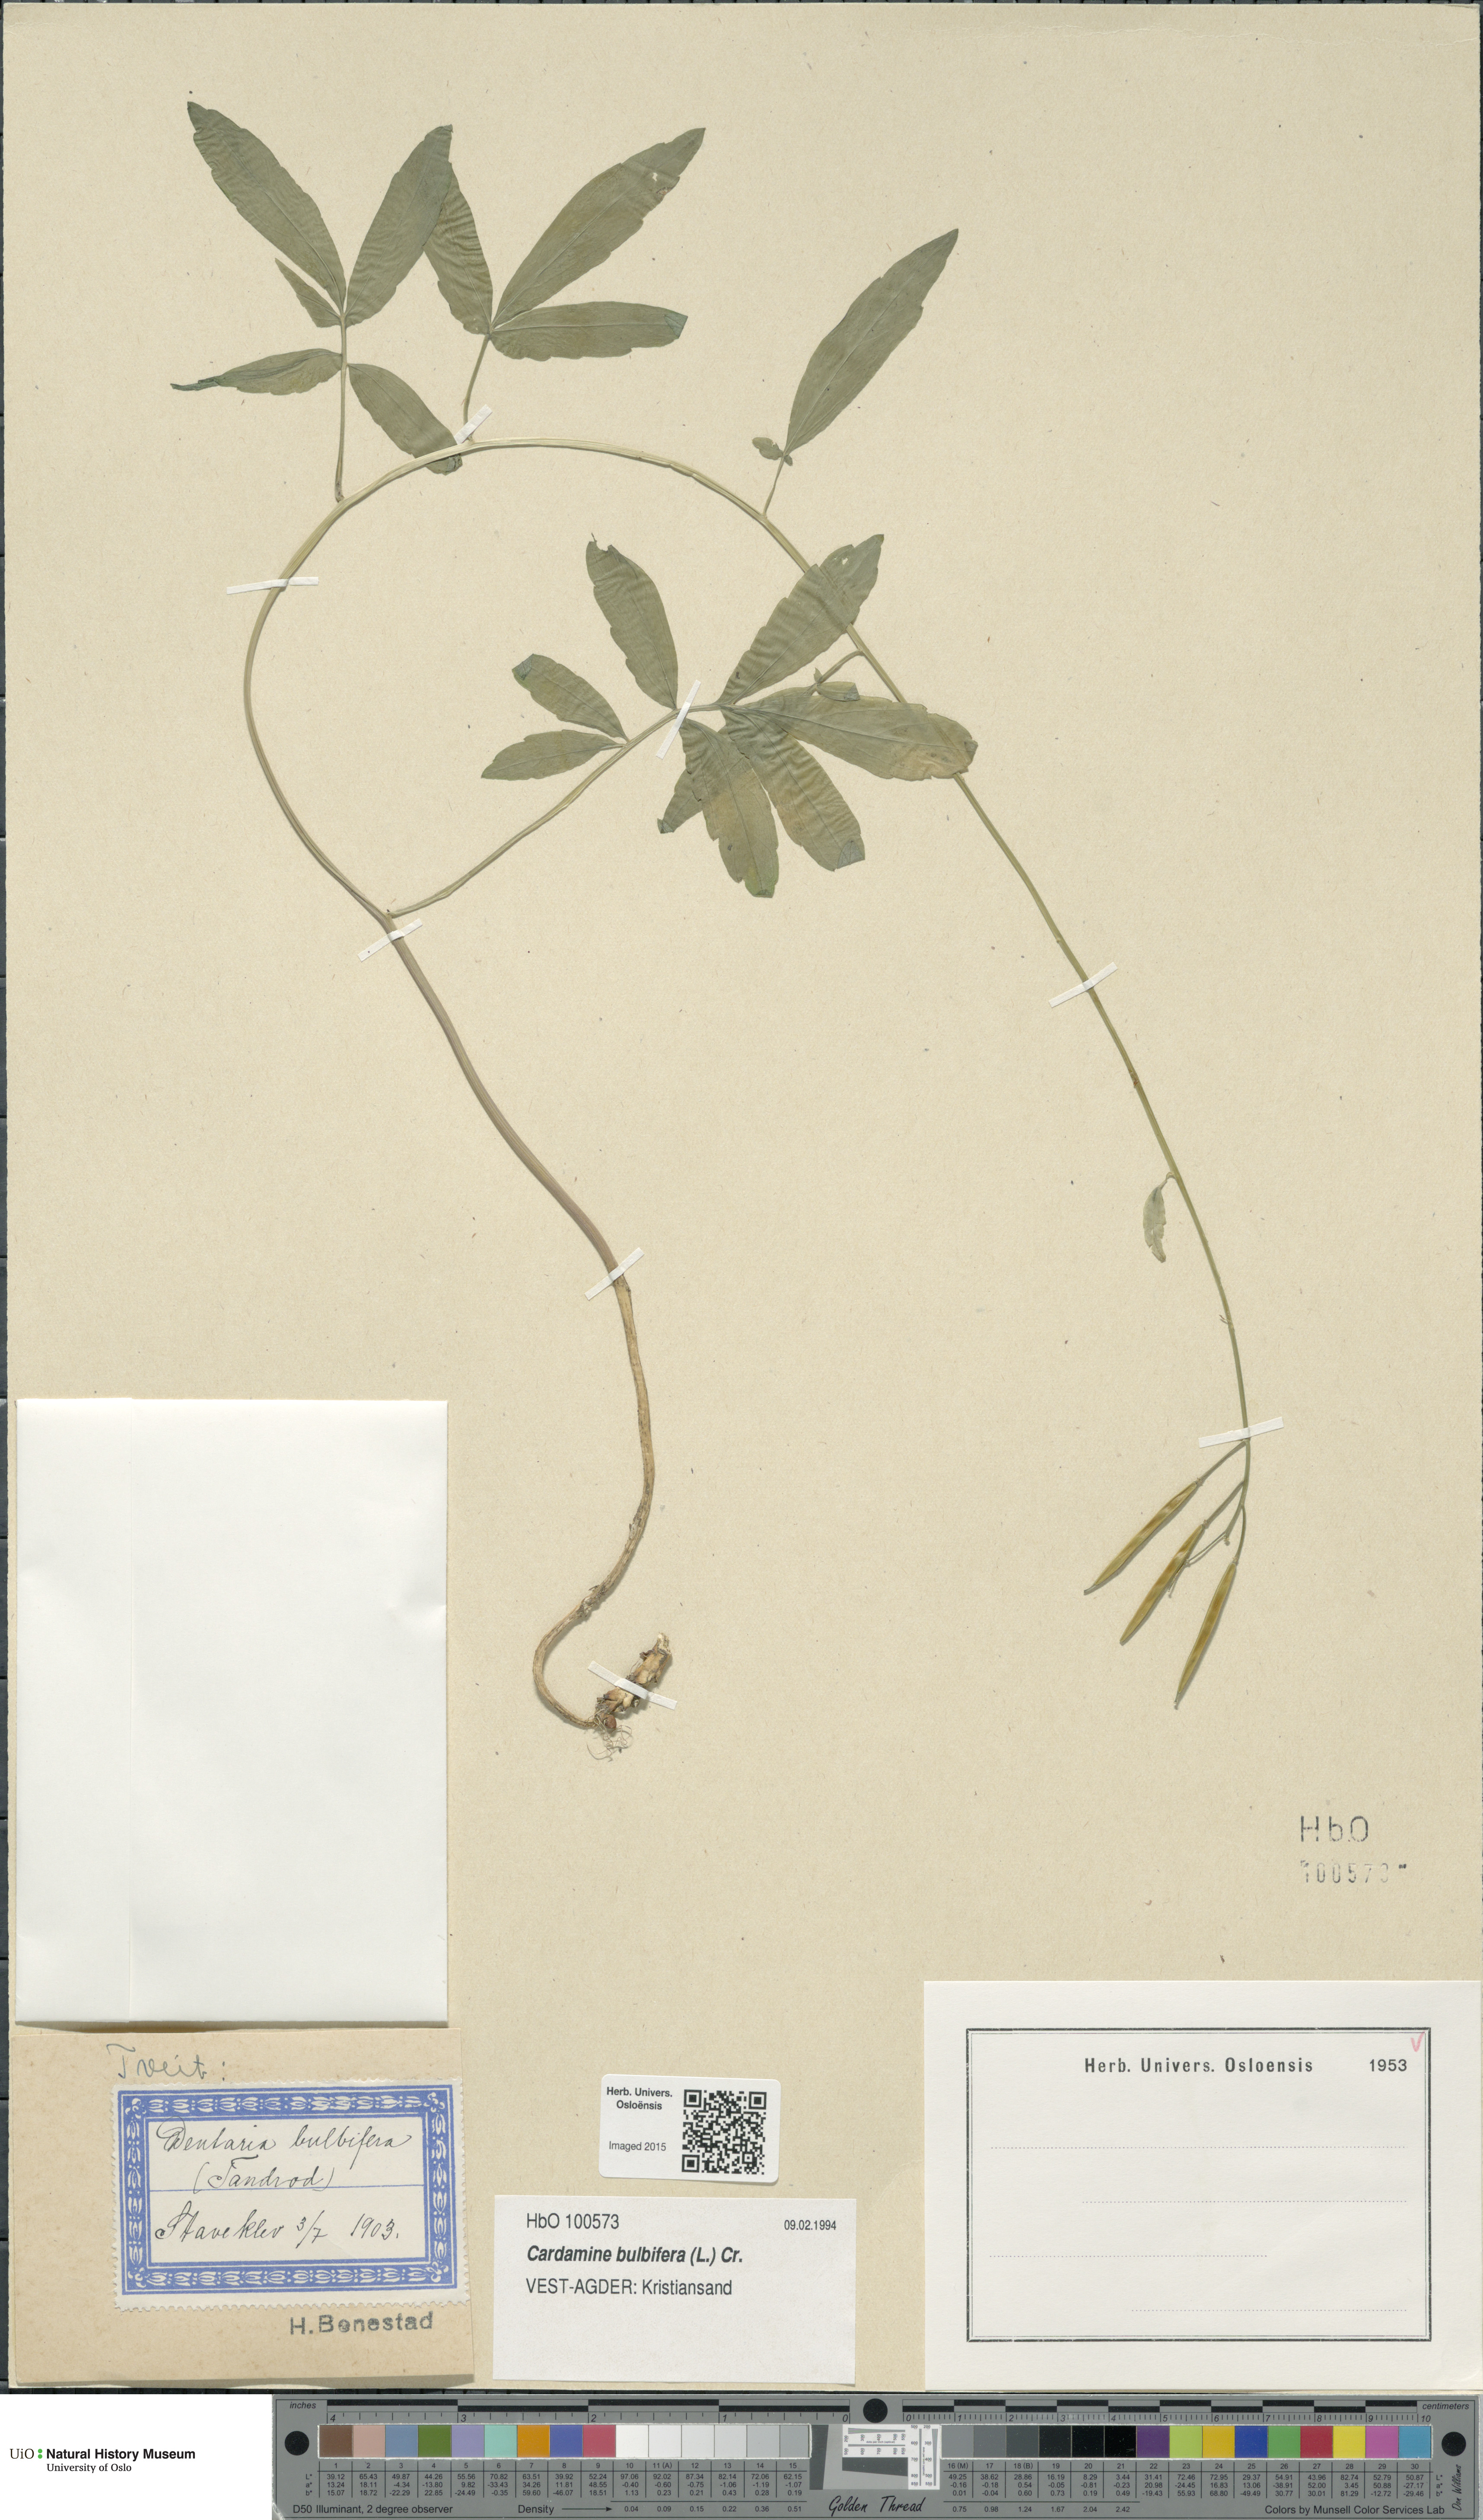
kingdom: Plantae
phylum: Tracheophyta
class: Magnoliopsida
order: Brassicales
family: Brassicaceae
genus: Cardamine
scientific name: Cardamine bulbifera
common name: Coralroot bittercress
